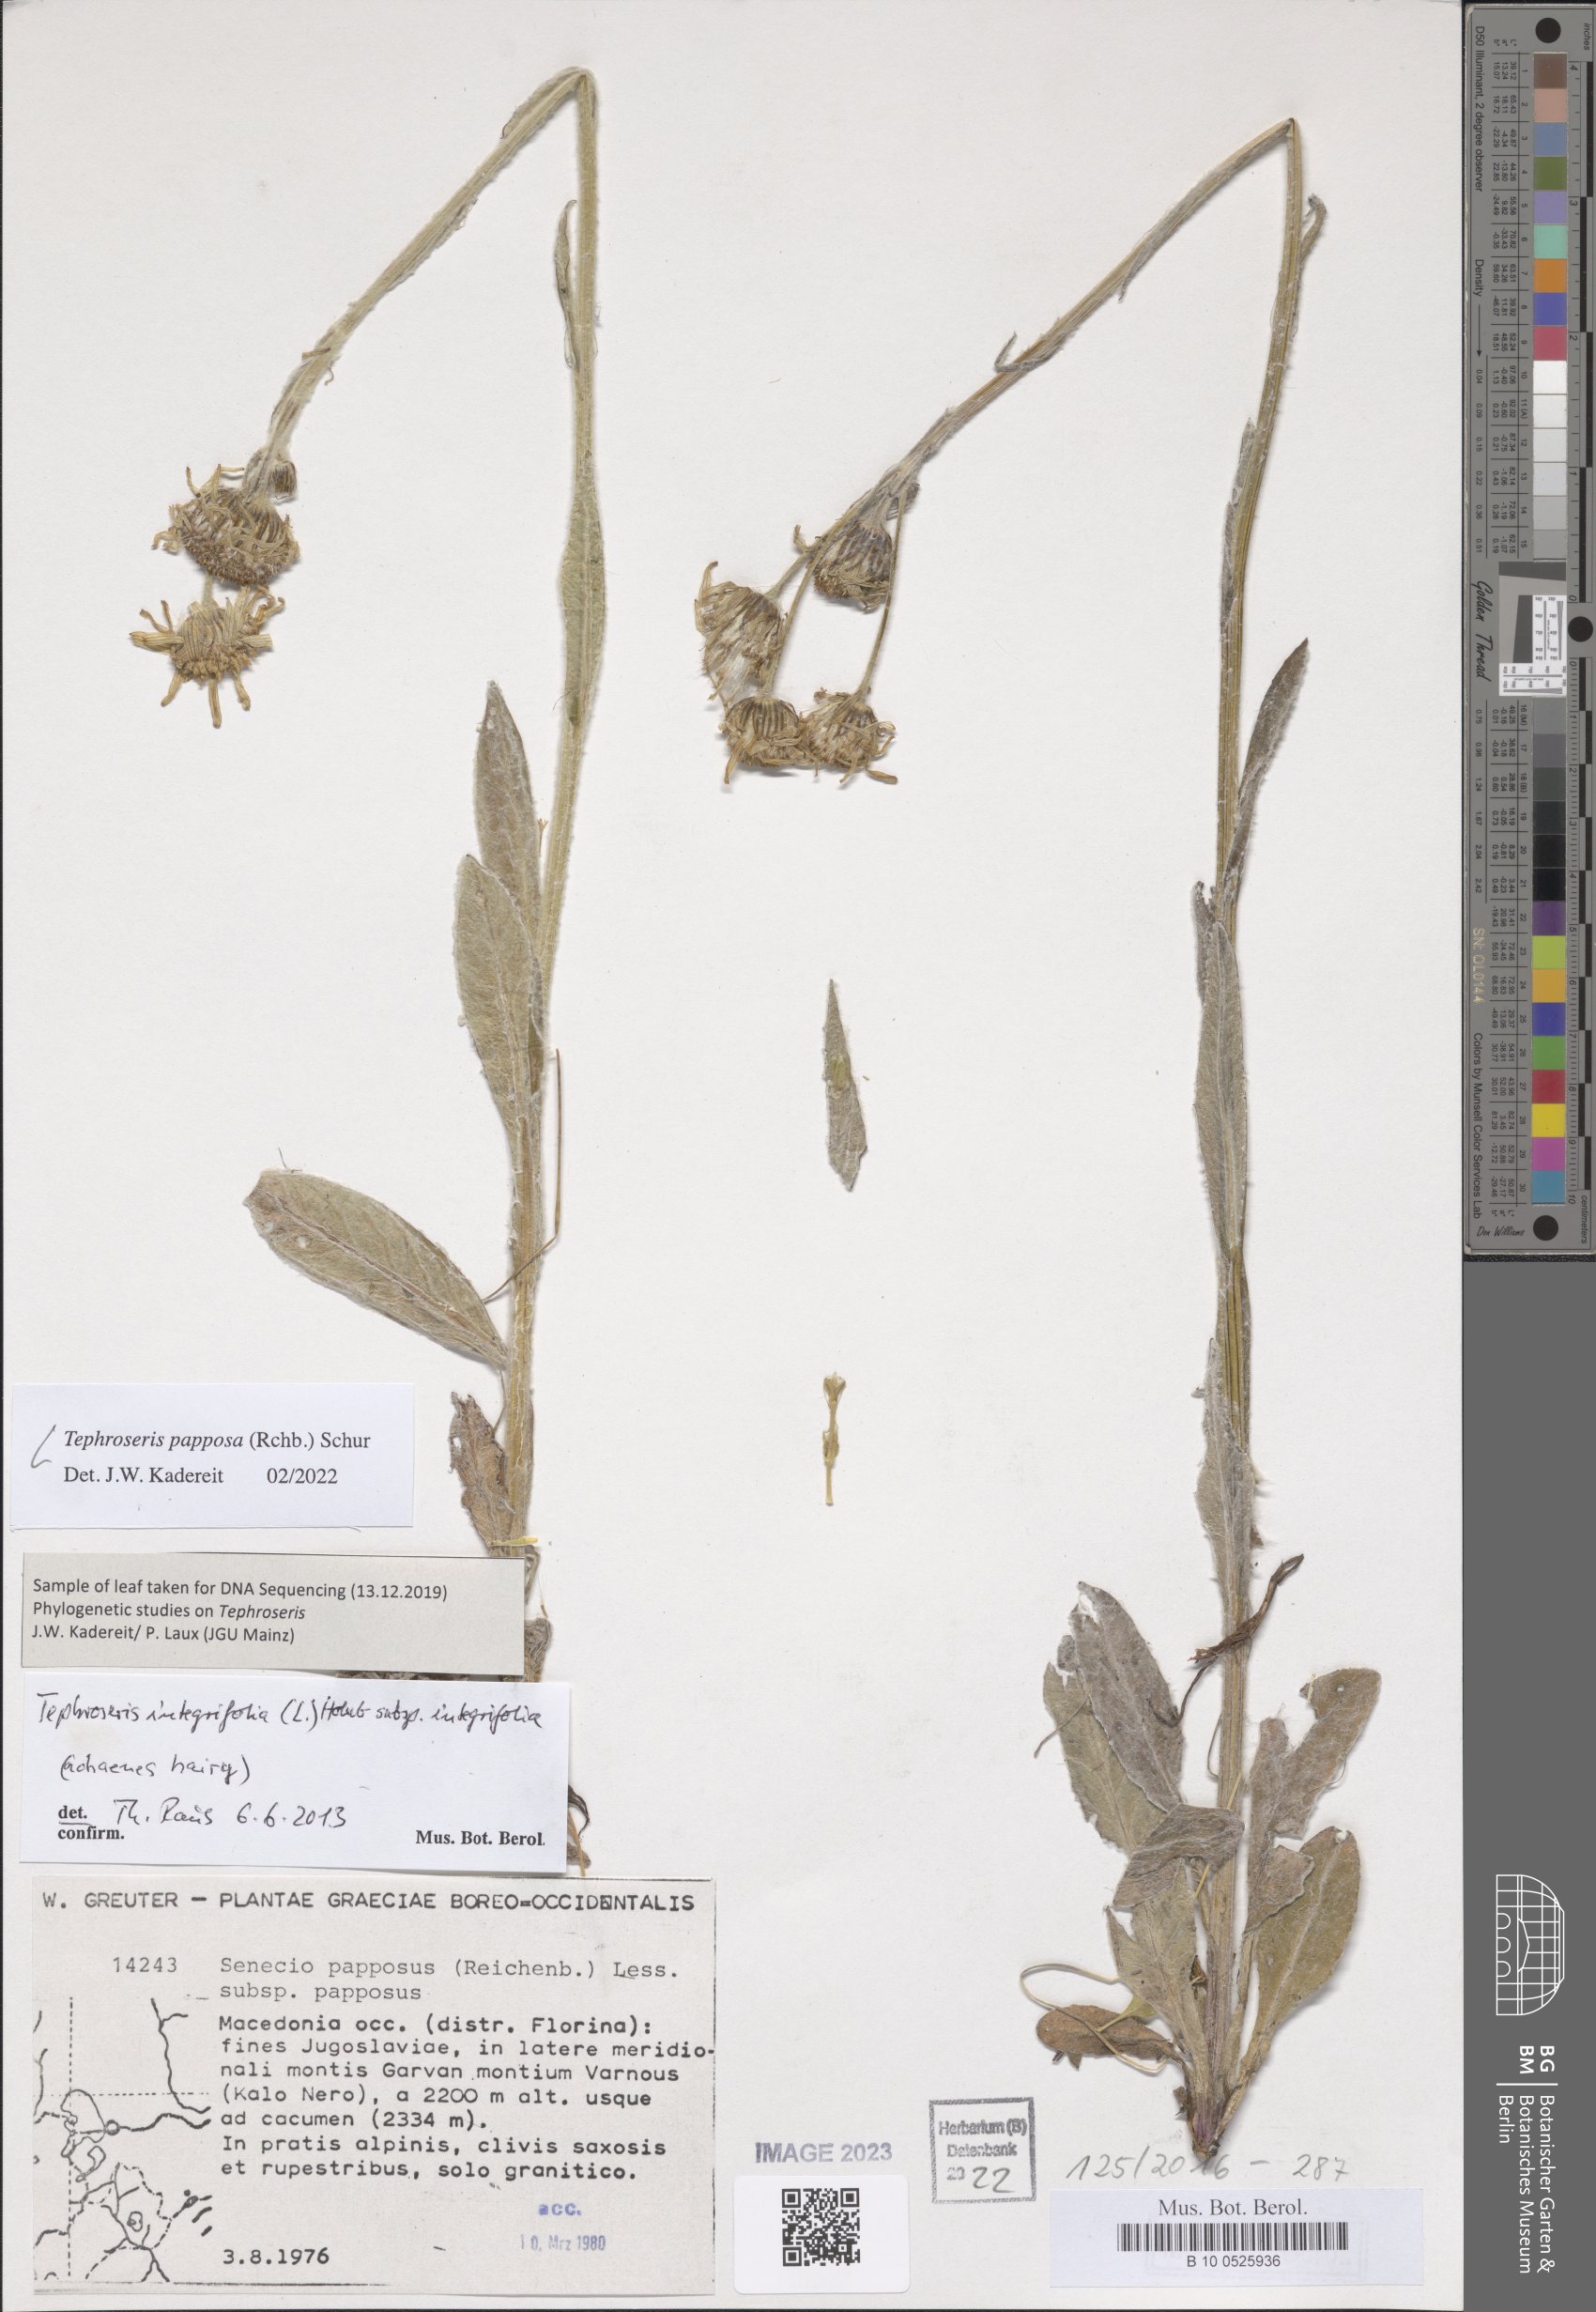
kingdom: Plantae
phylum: Tracheophyta
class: Magnoliopsida
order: Asterales
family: Asteraceae
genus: Tephroseris
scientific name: Tephroseris papposa
